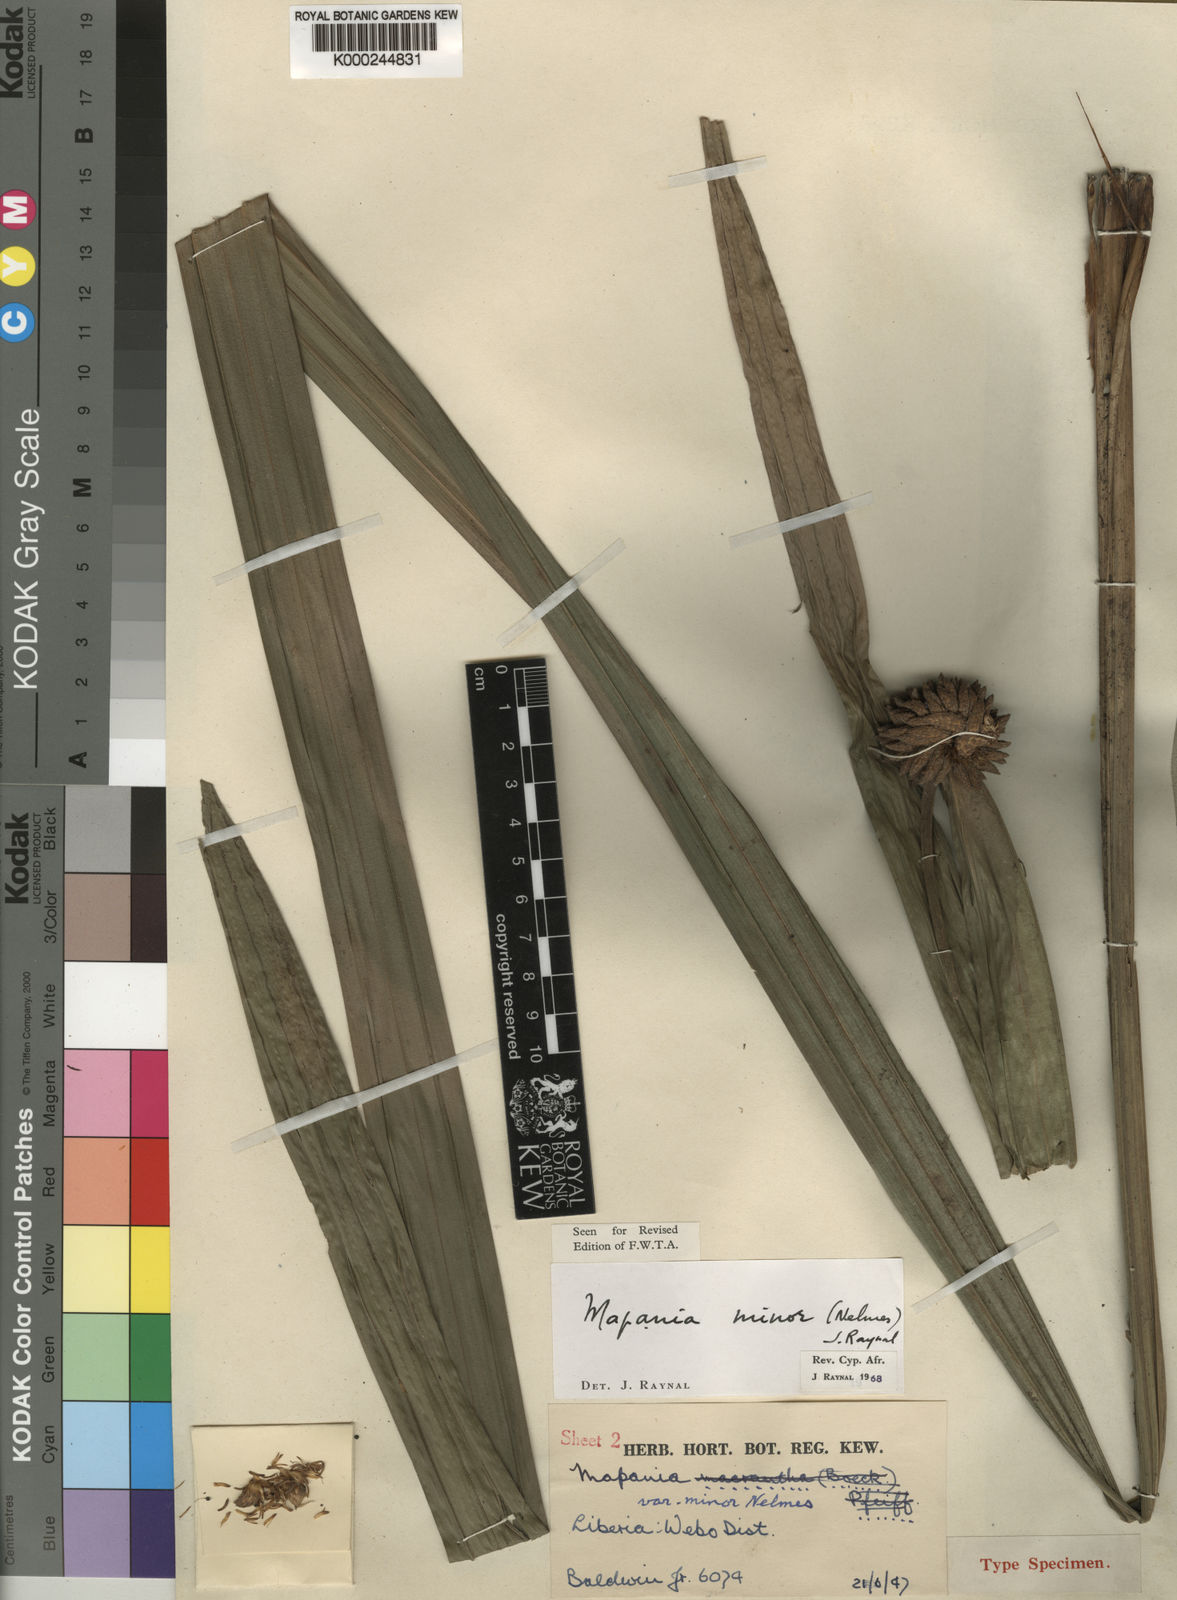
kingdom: Plantae
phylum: Tracheophyta
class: Liliopsida
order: Poales
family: Cyperaceae
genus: Mapania
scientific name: Mapania minor
